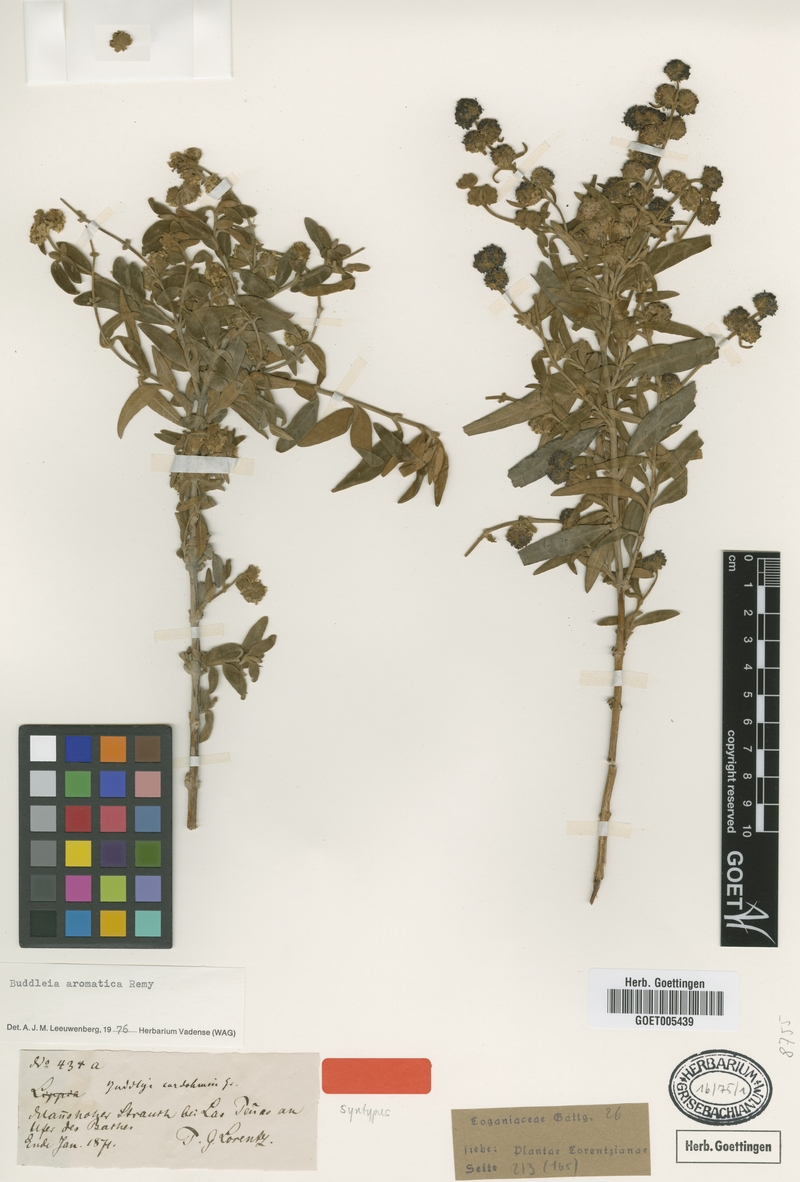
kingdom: Plantae
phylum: Tracheophyta
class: Magnoliopsida
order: Lamiales
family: Scrophulariaceae
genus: Buddleja
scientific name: Buddleja cordobensis
